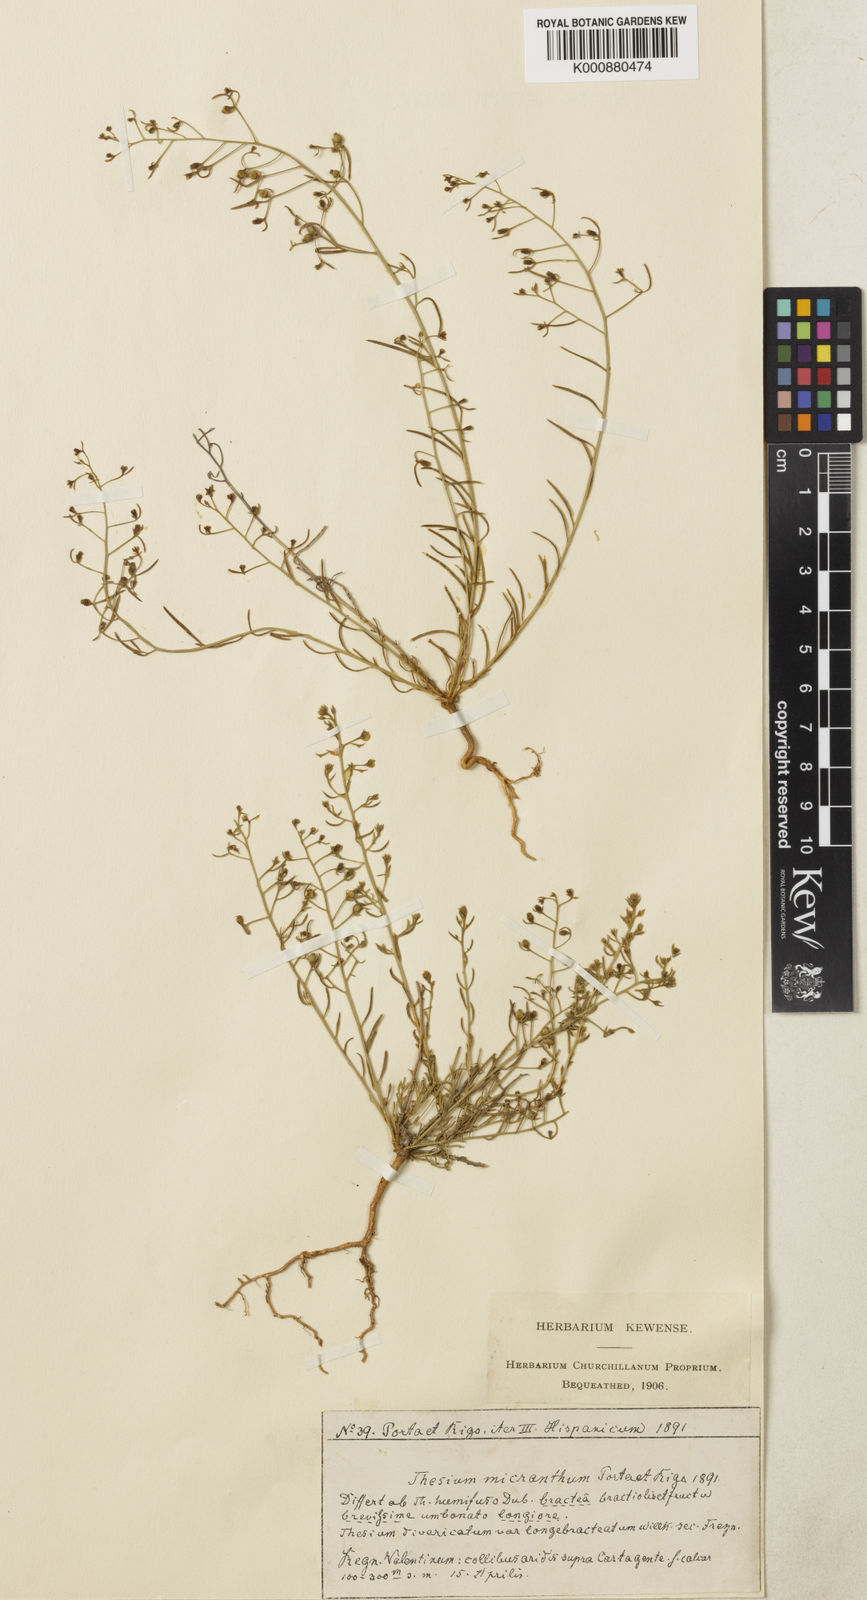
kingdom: Plantae
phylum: Tracheophyta
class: Magnoliopsida
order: Santalales
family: Thesiaceae
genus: Thesium
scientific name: Thesium
